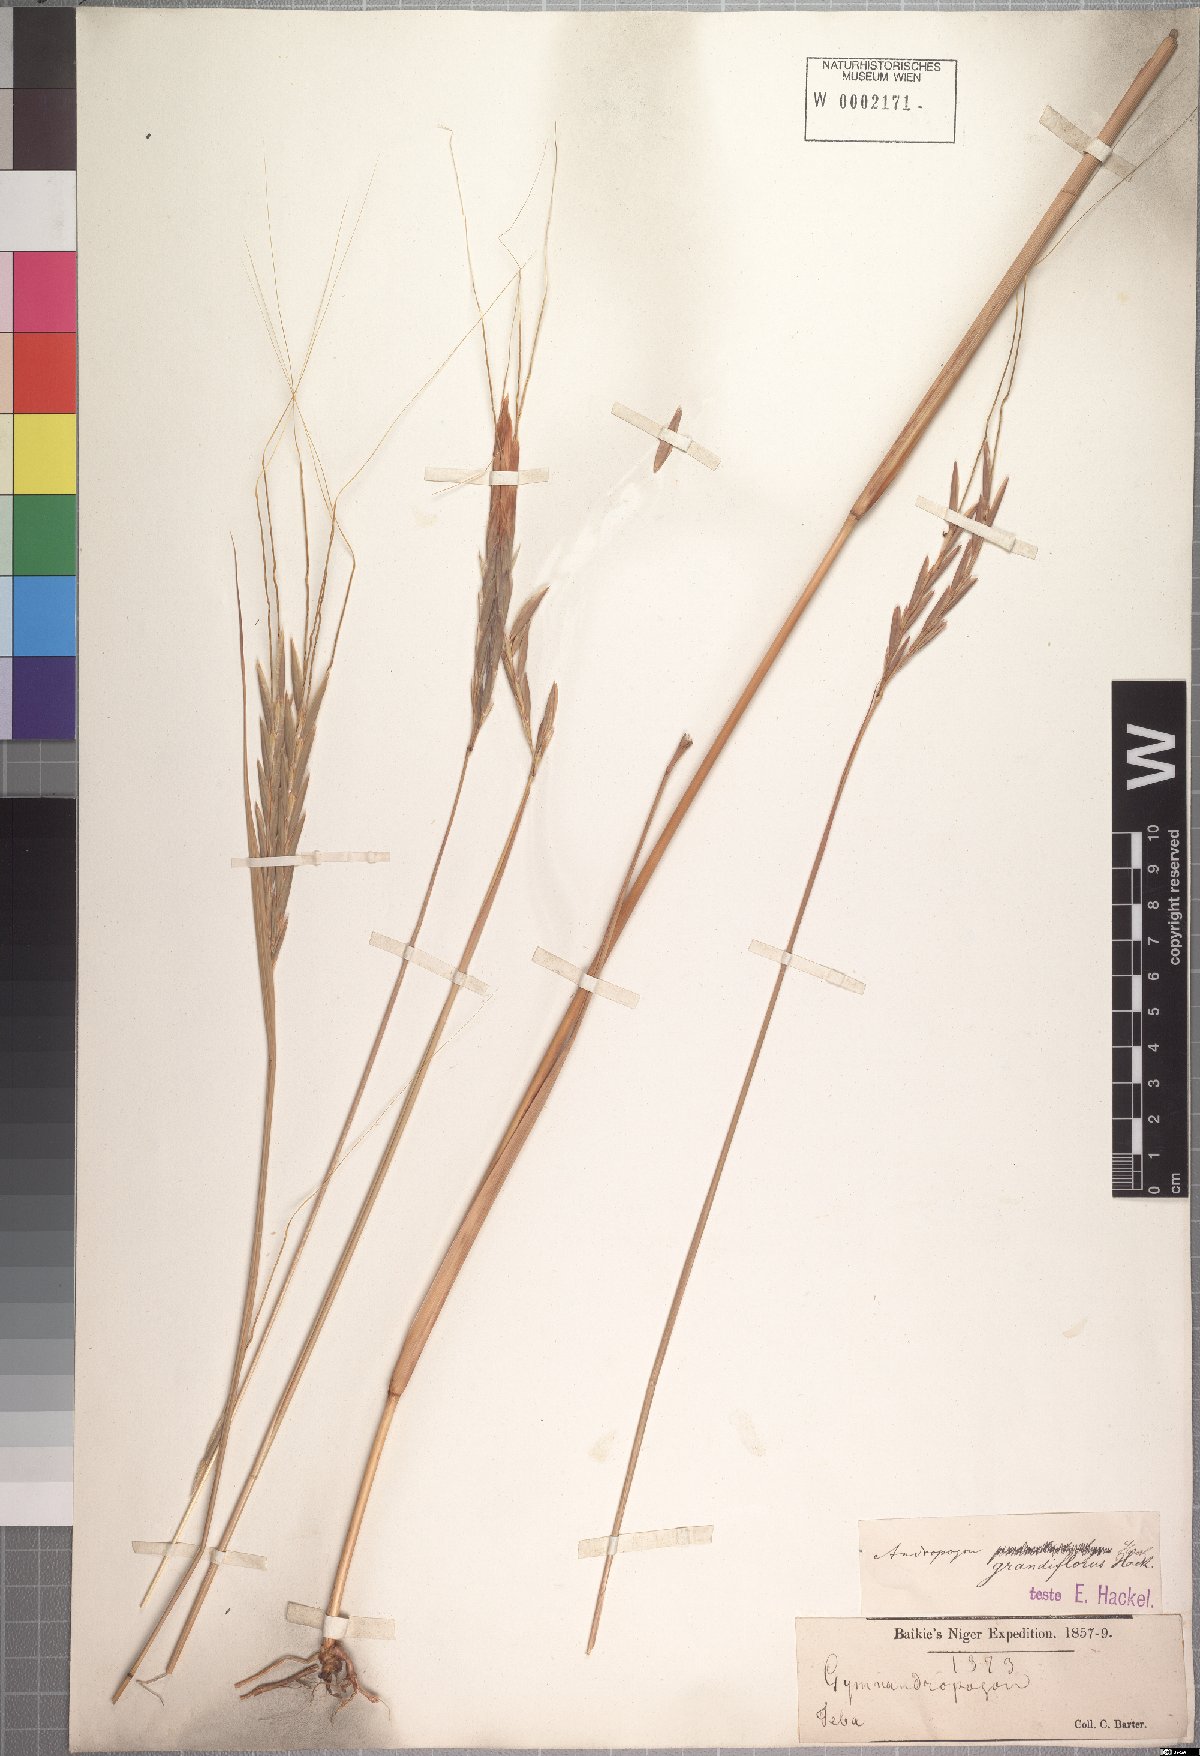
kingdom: Plantae
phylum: Tracheophyta
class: Liliopsida
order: Poales
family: Poaceae
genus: Diheteropogon
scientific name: Diheteropogon filifolius
